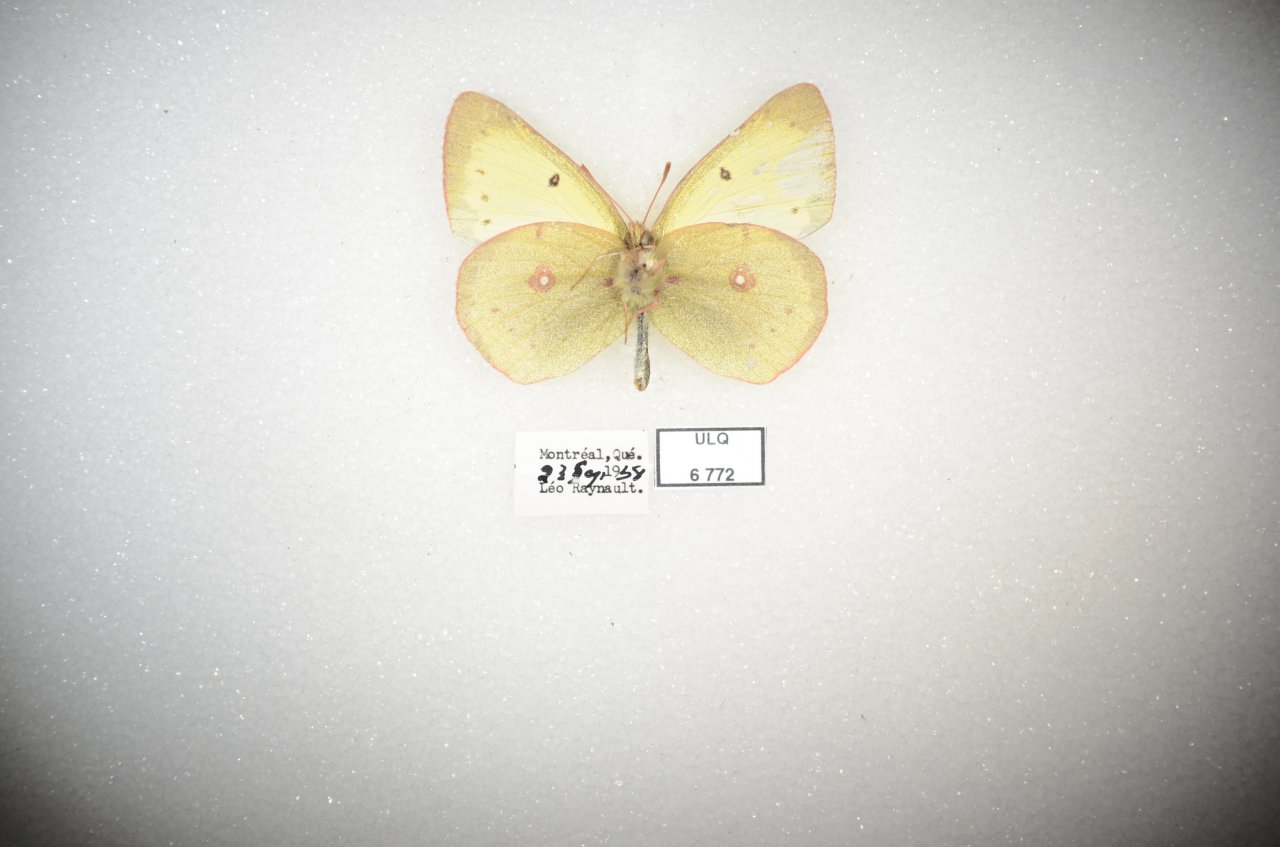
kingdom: Animalia
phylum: Arthropoda
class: Insecta
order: Lepidoptera
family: Pieridae
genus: Colias
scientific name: Colias philodice
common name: Clouded Sulphur
